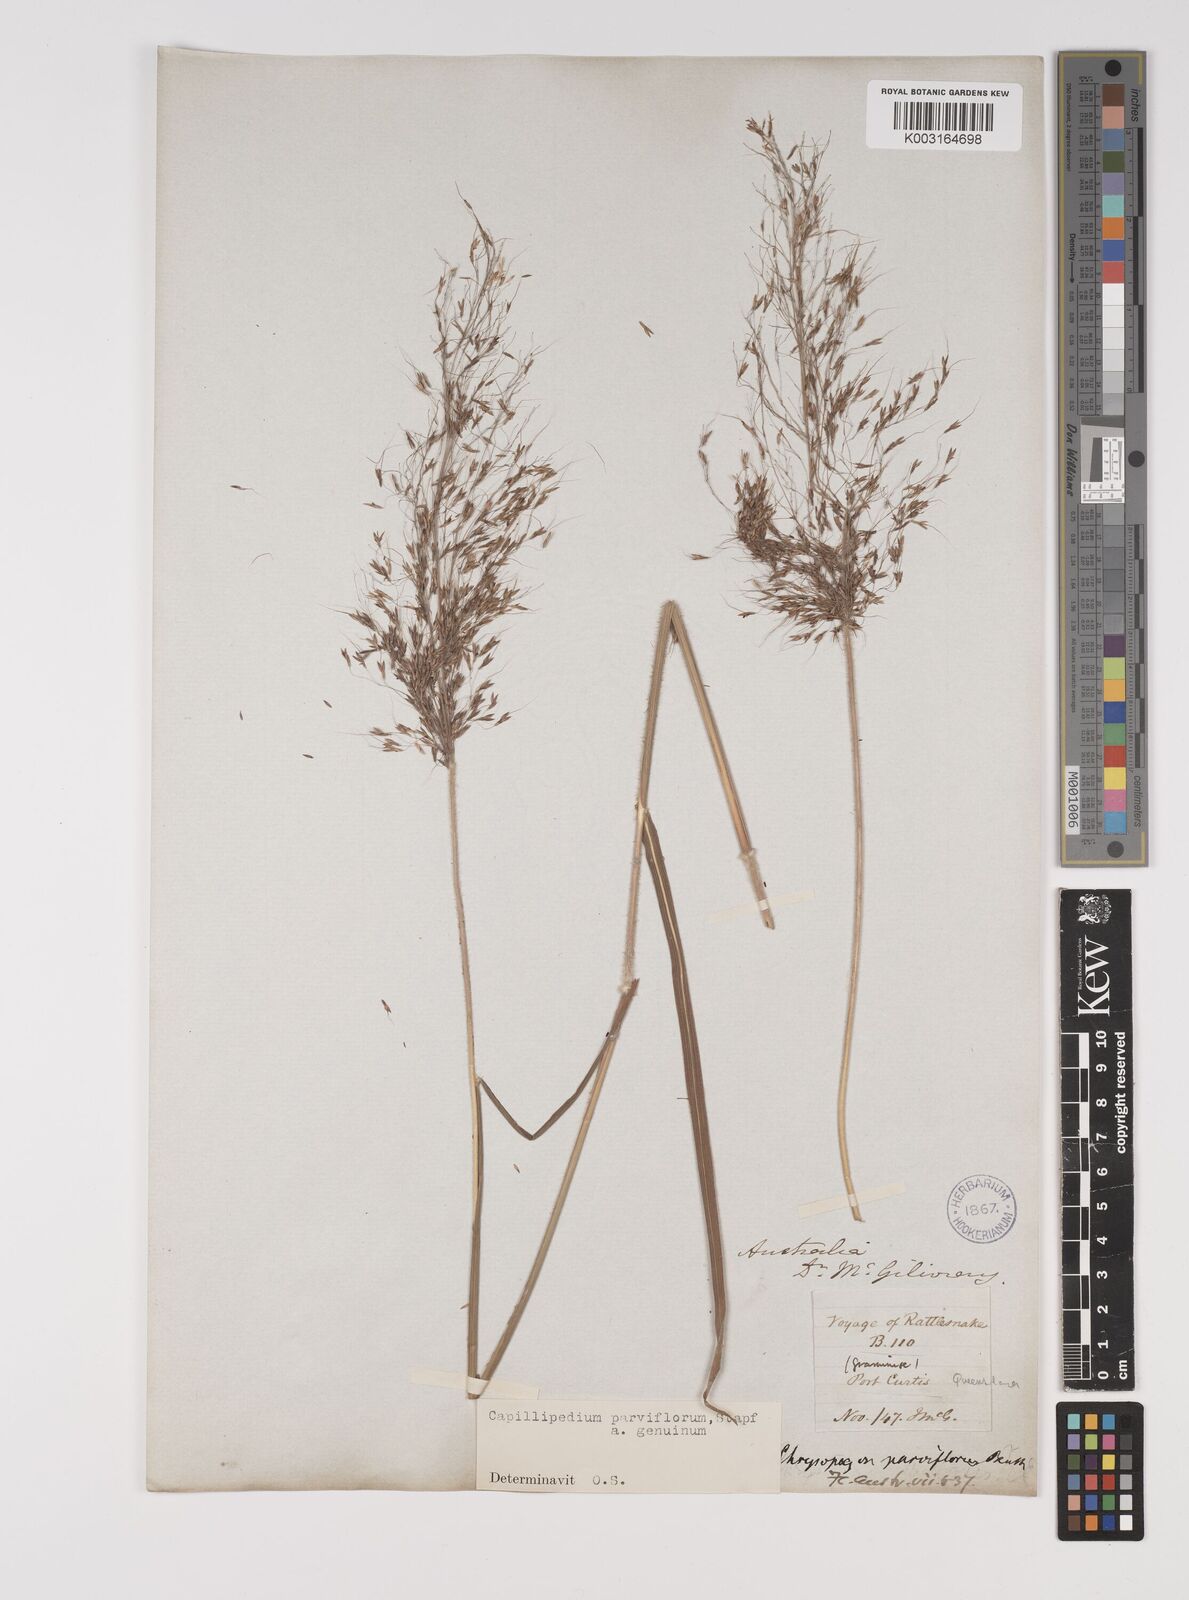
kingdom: Plantae
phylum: Tracheophyta
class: Liliopsida
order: Poales
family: Poaceae
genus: Capillipedium
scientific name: Capillipedium parviflorum
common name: Golden-beard
